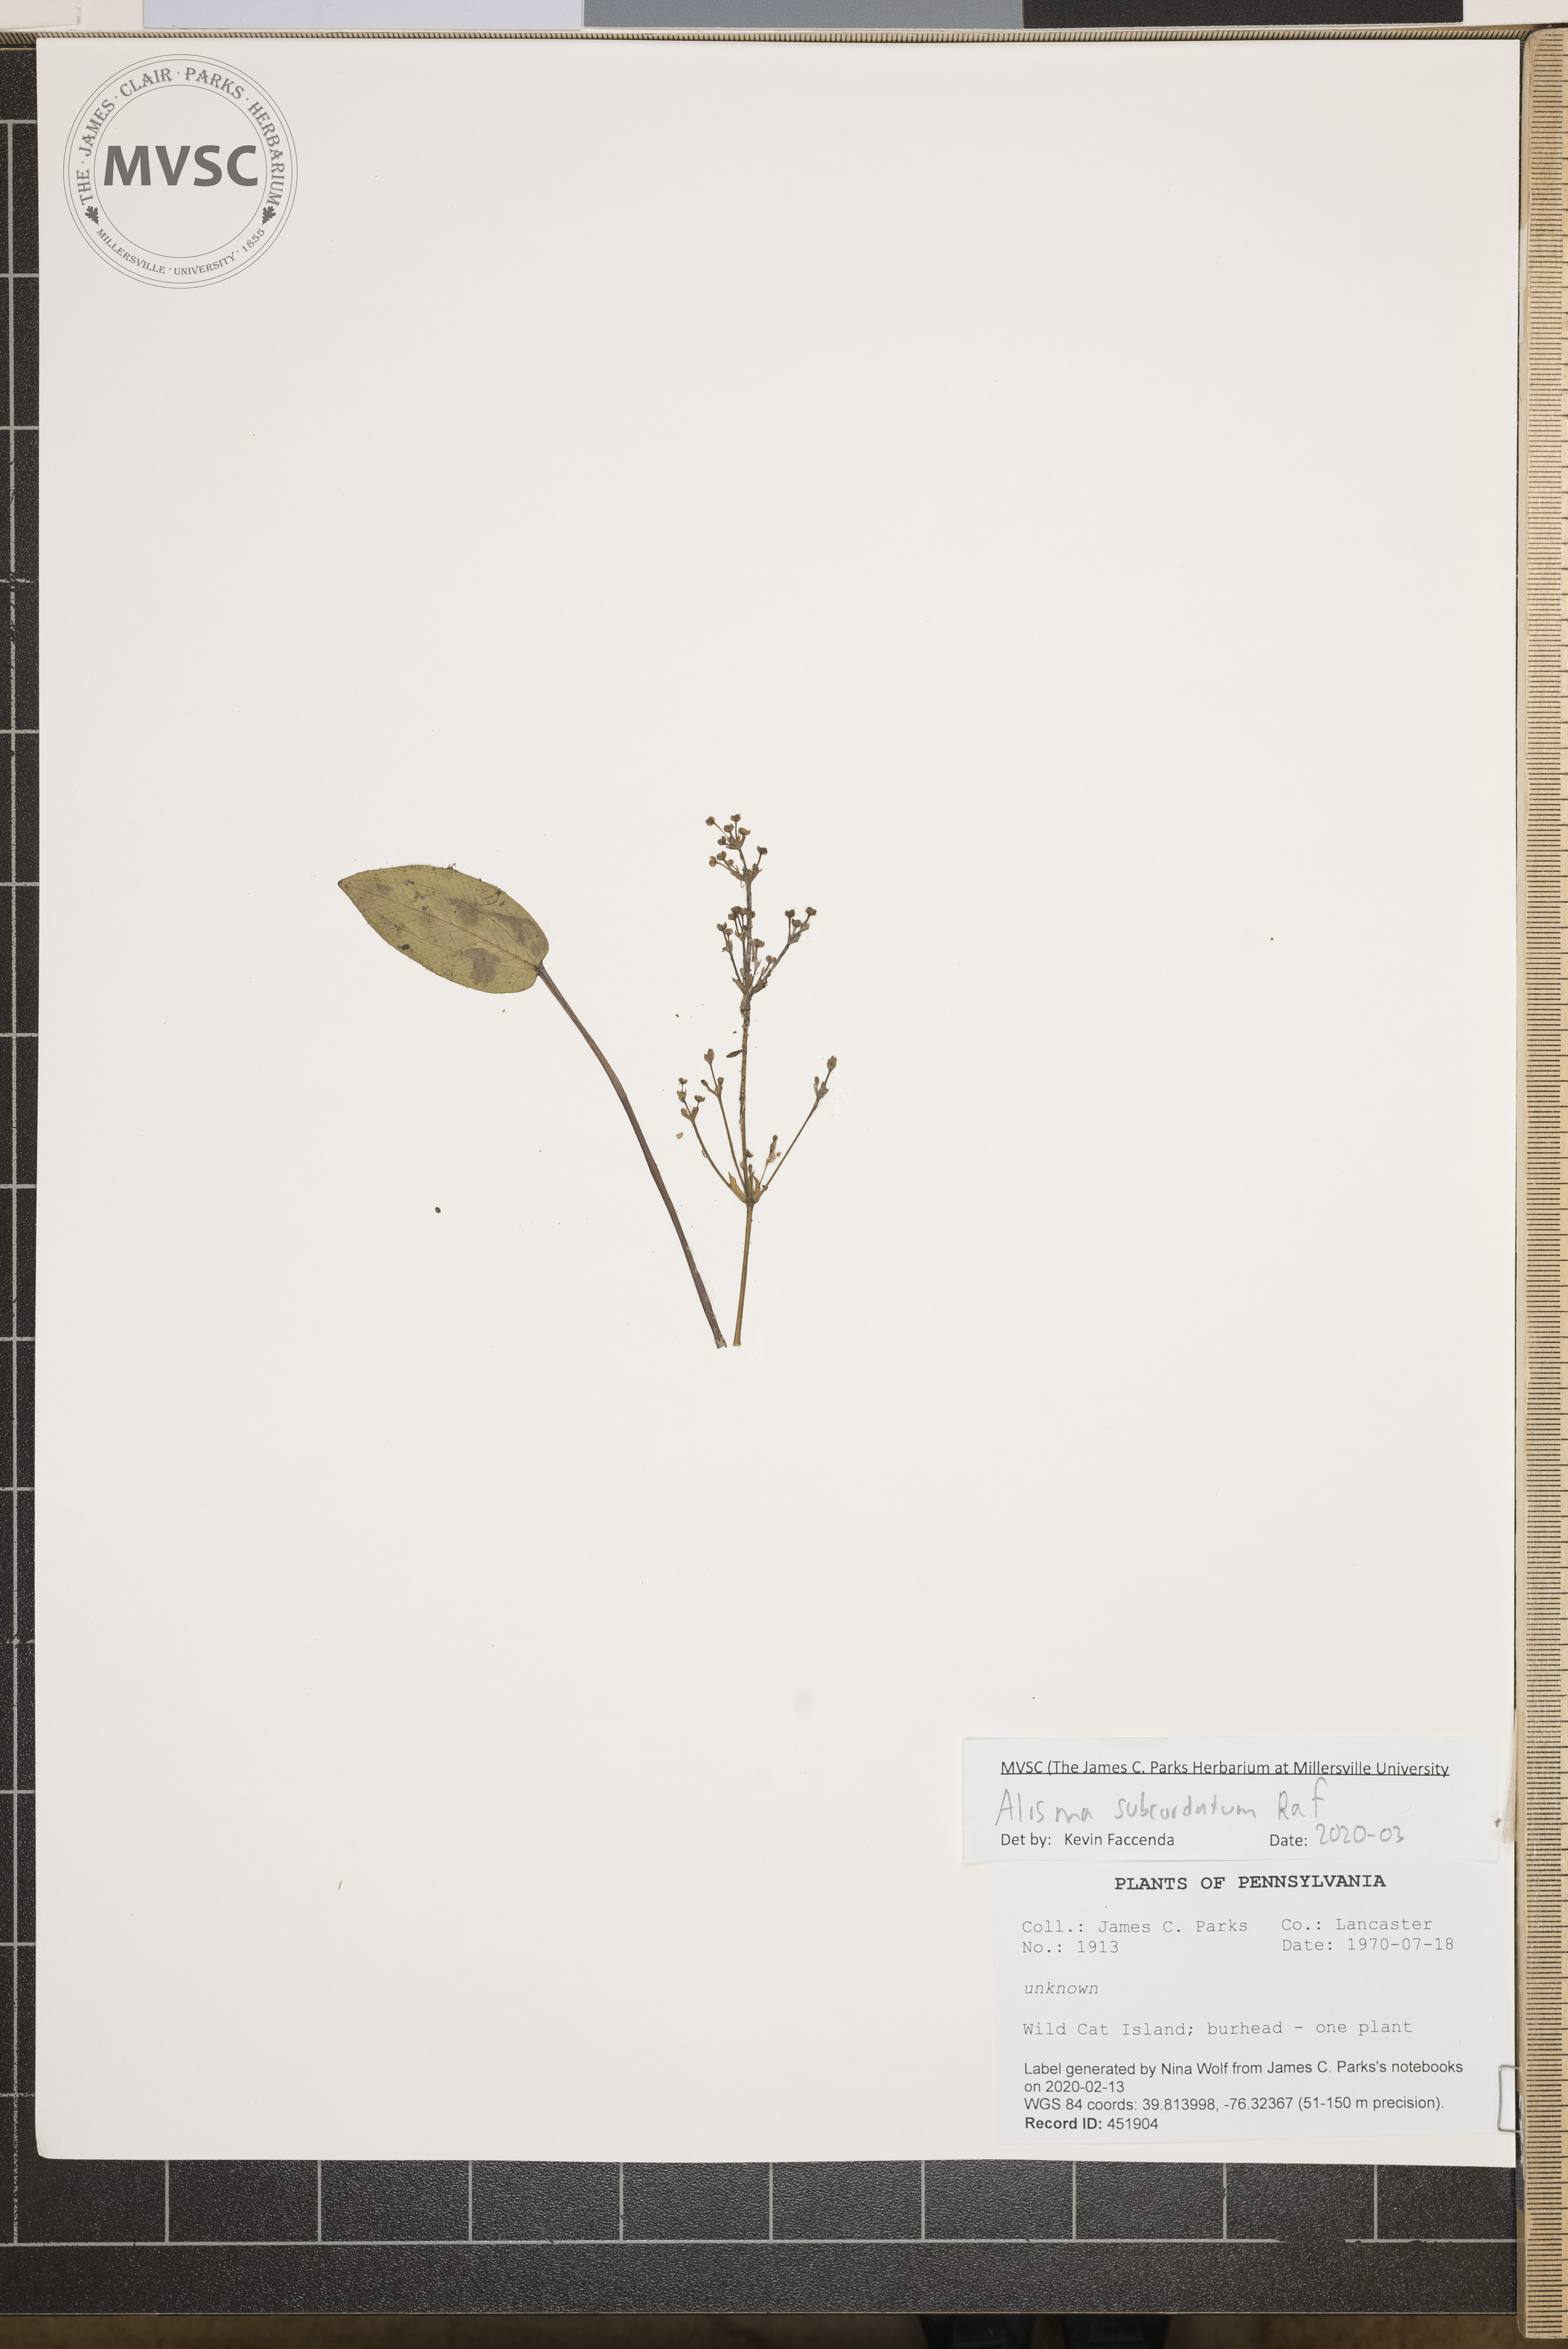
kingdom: Plantae
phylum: Tracheophyta
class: Liliopsida
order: Alismatales
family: Alismataceae
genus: Alisma
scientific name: Alisma subcordatum
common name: Southern water-plantain
